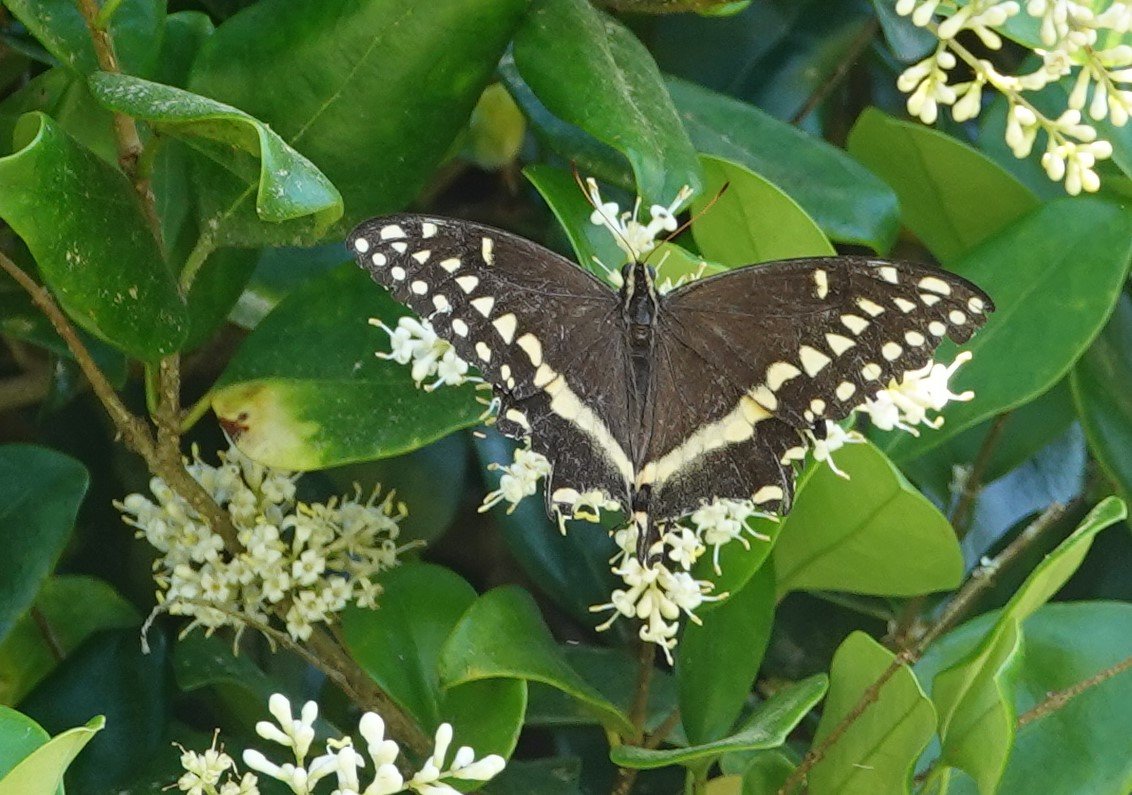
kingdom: Animalia
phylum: Arthropoda
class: Insecta
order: Lepidoptera
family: Papilionidae
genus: Pterourus
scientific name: Pterourus palamedes
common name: Palamedes Swallowtail
